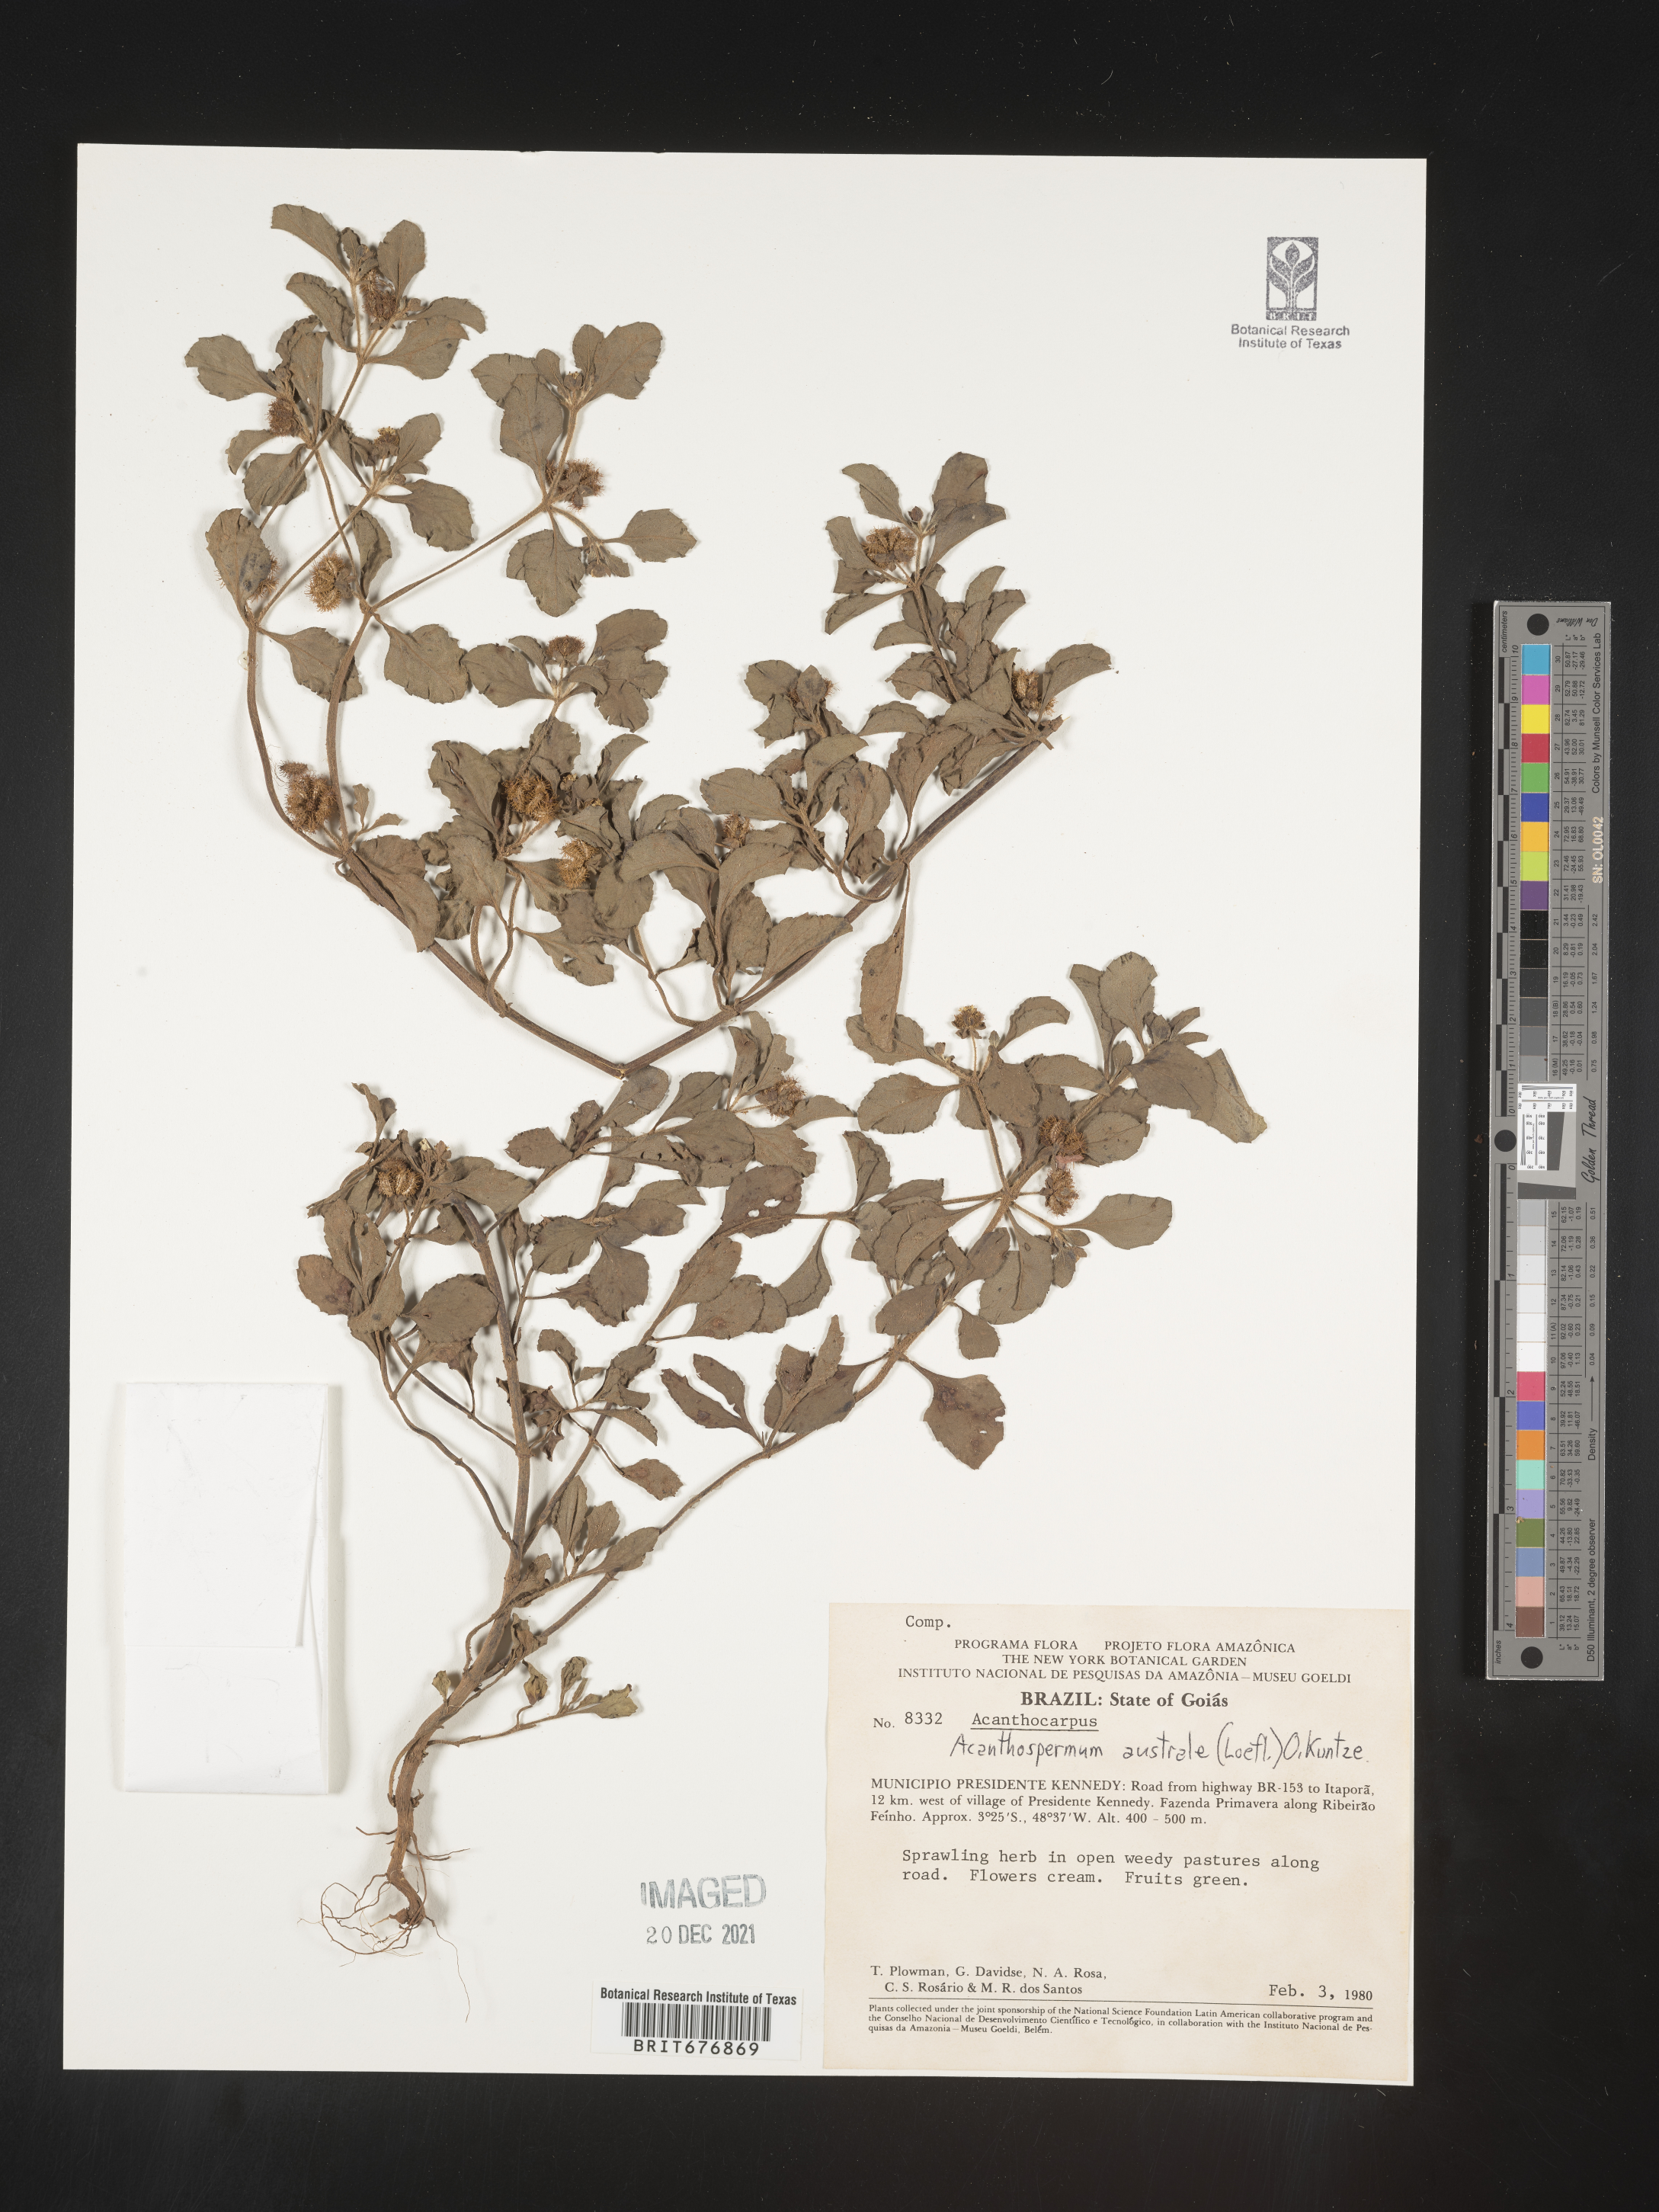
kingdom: Plantae
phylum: Tracheophyta
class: Magnoliopsida
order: Asterales
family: Asteraceae
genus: Acanthospermum
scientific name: Acanthospermum
